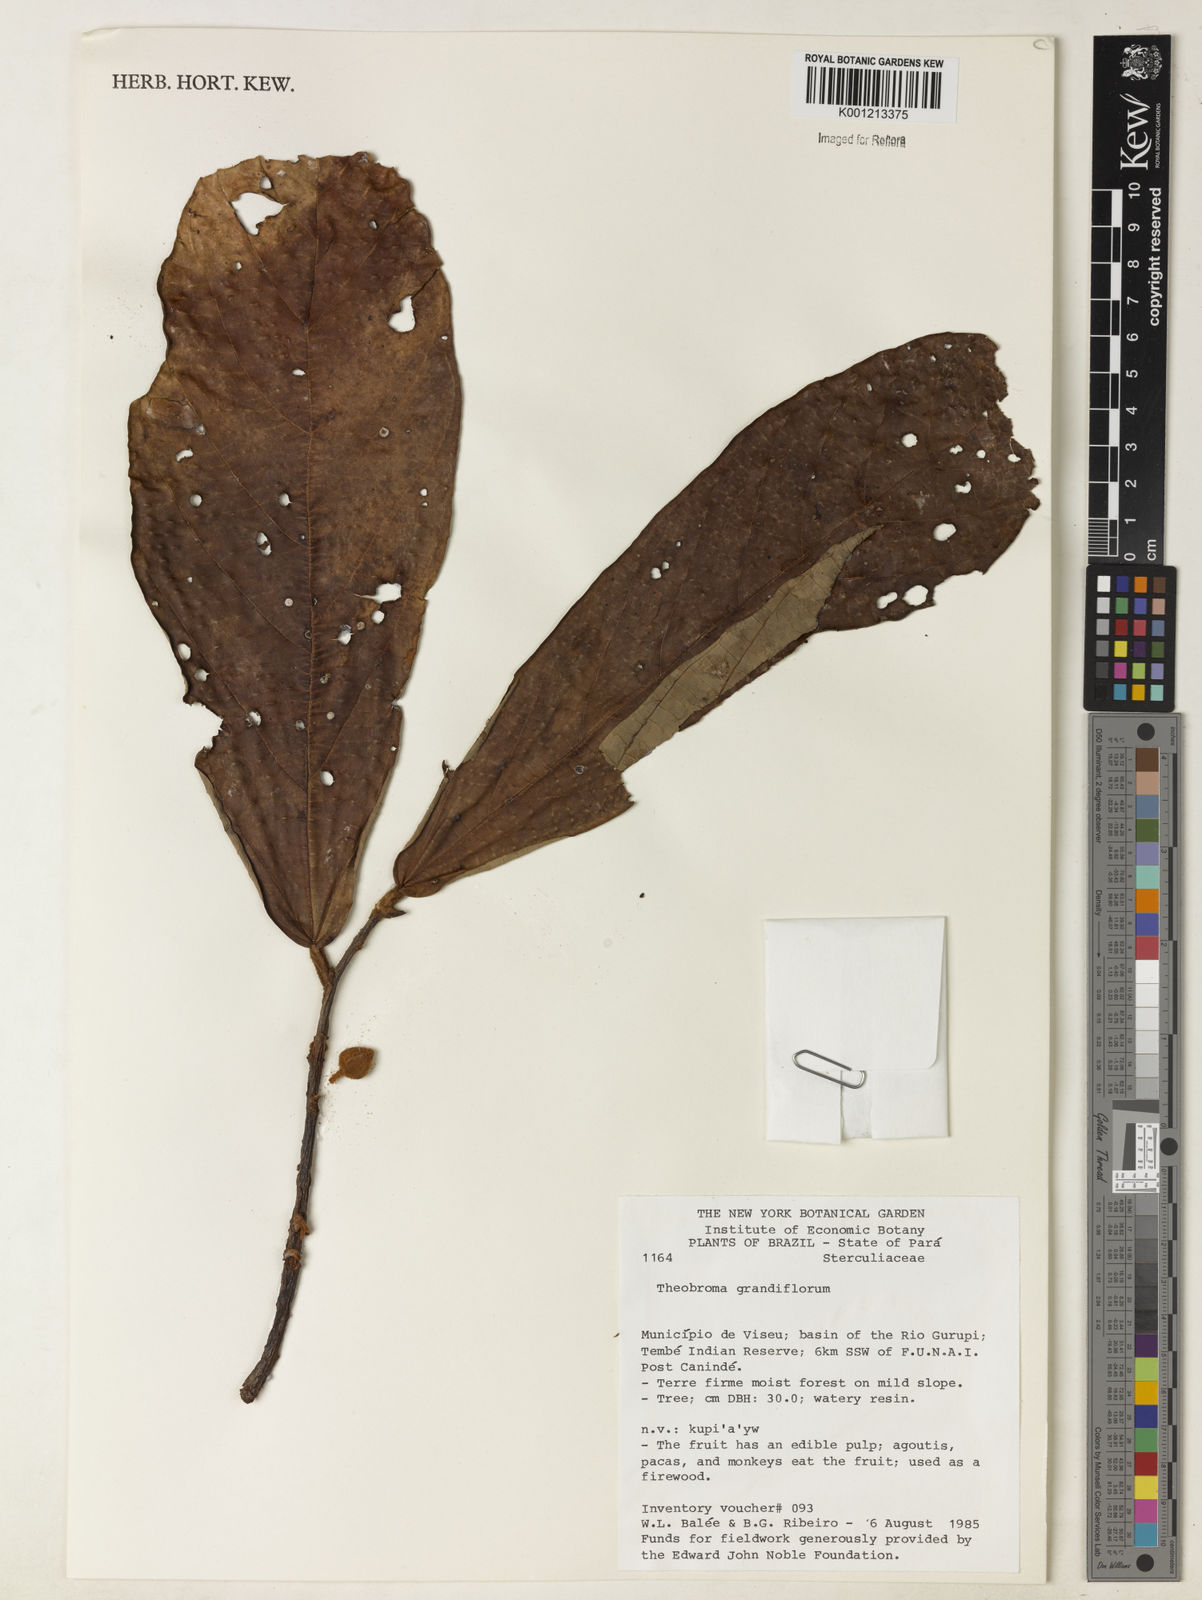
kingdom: Plantae
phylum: Tracheophyta
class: Magnoliopsida
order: Malvales
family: Malvaceae
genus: Theobroma
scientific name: Theobroma grandiflorum
